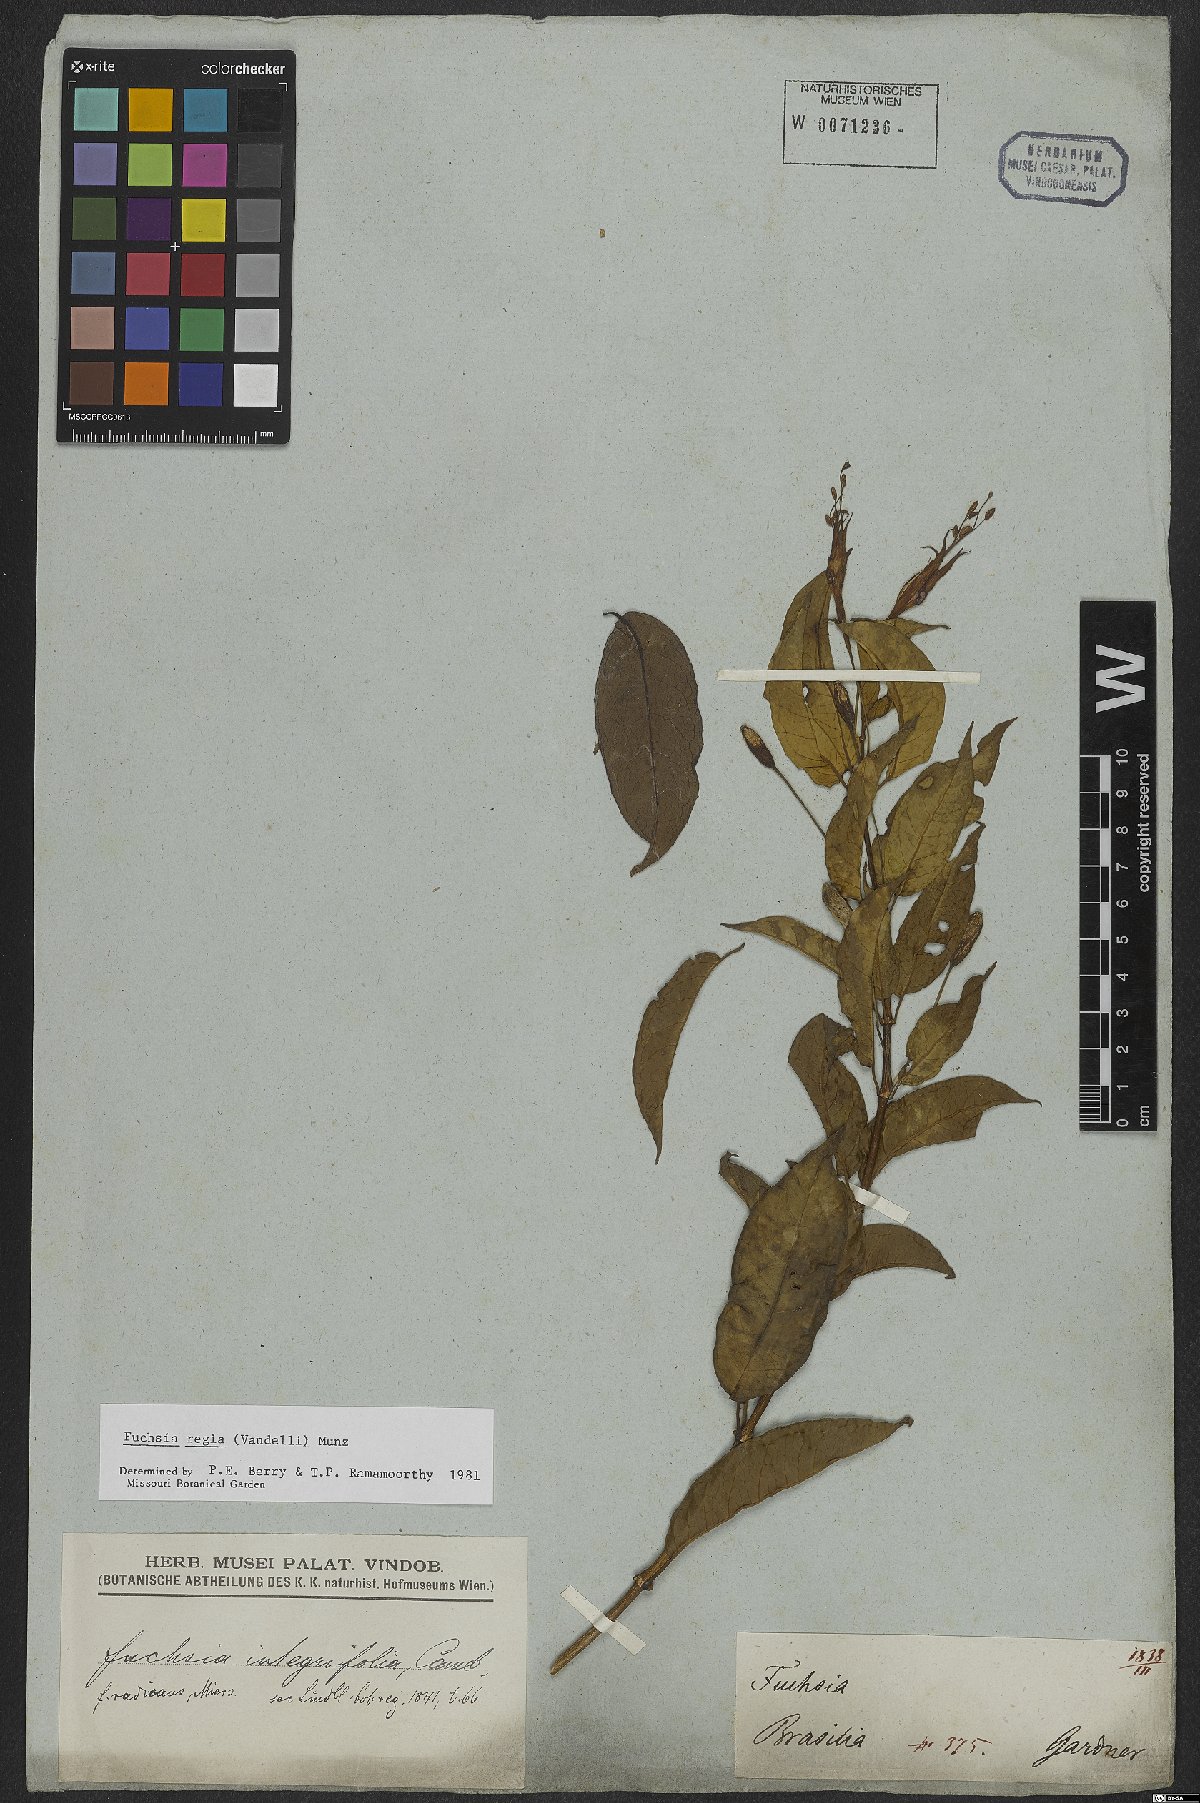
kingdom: Plantae
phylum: Tracheophyta
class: Magnoliopsida
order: Myrtales
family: Onagraceae
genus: Fuchsia
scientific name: Fuchsia regia
